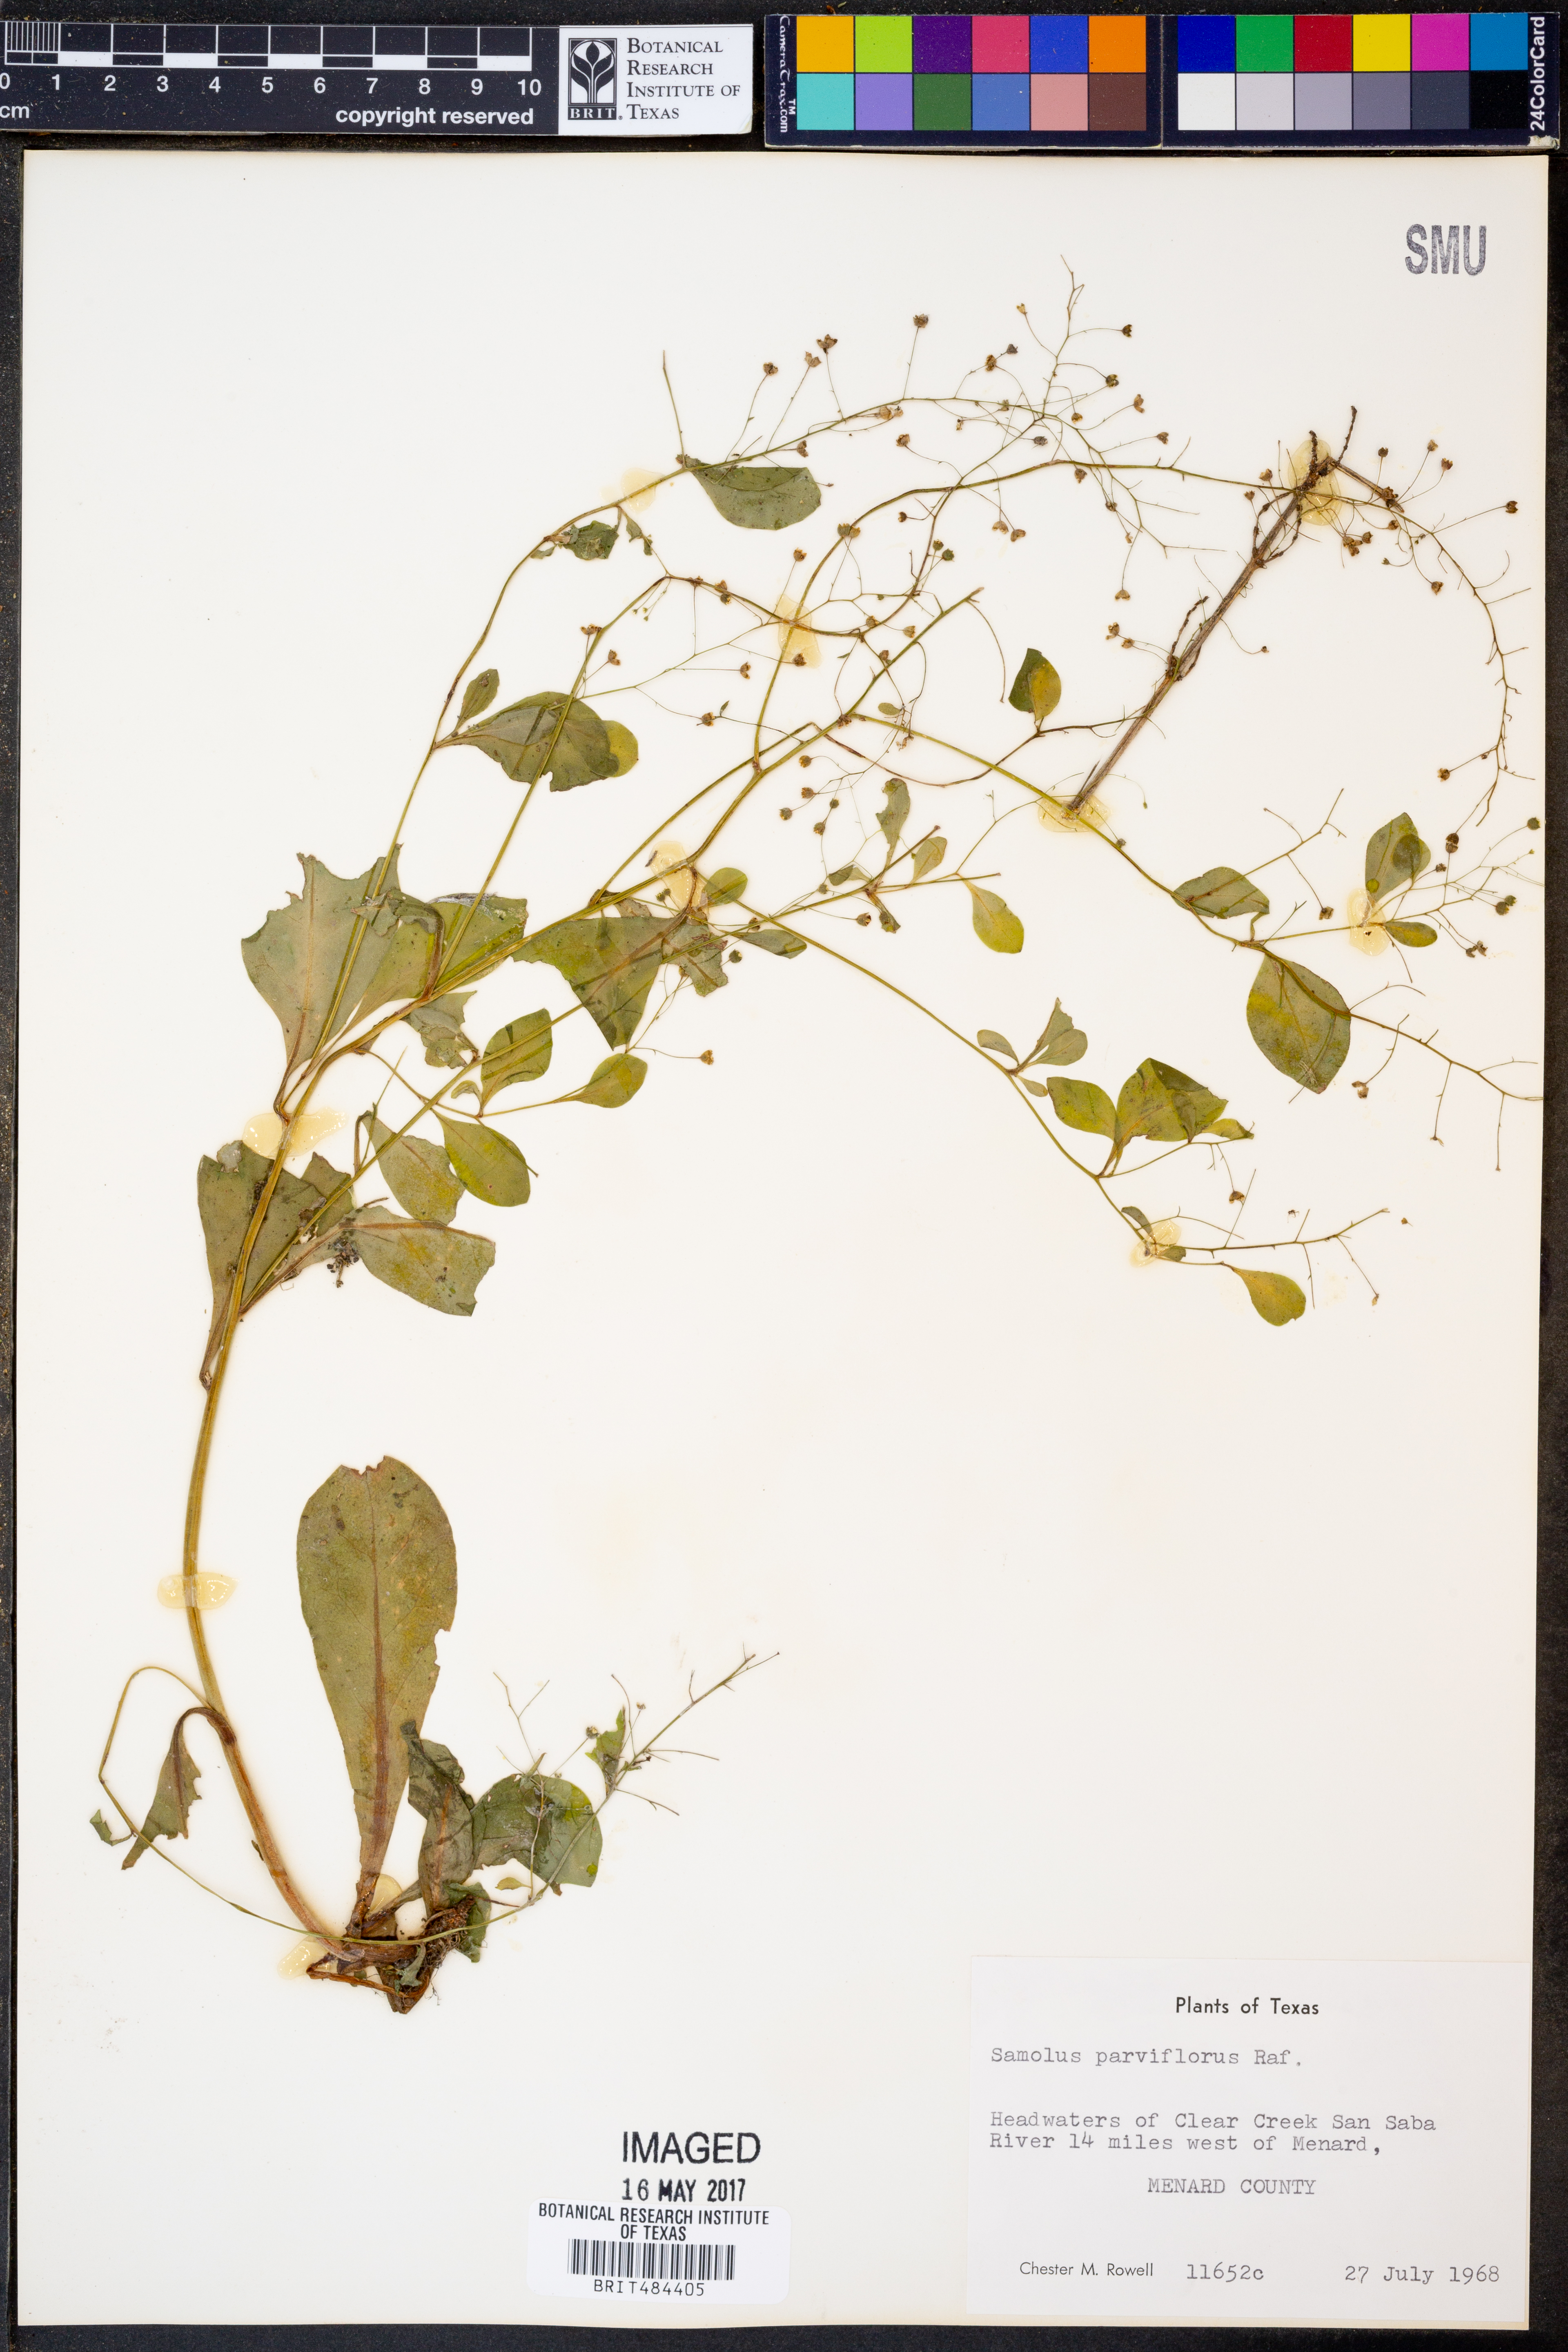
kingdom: Plantae
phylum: Tracheophyta
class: Magnoliopsida
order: Ericales
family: Primulaceae
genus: Samolus
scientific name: Samolus parviflorus
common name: False water pimpernel
